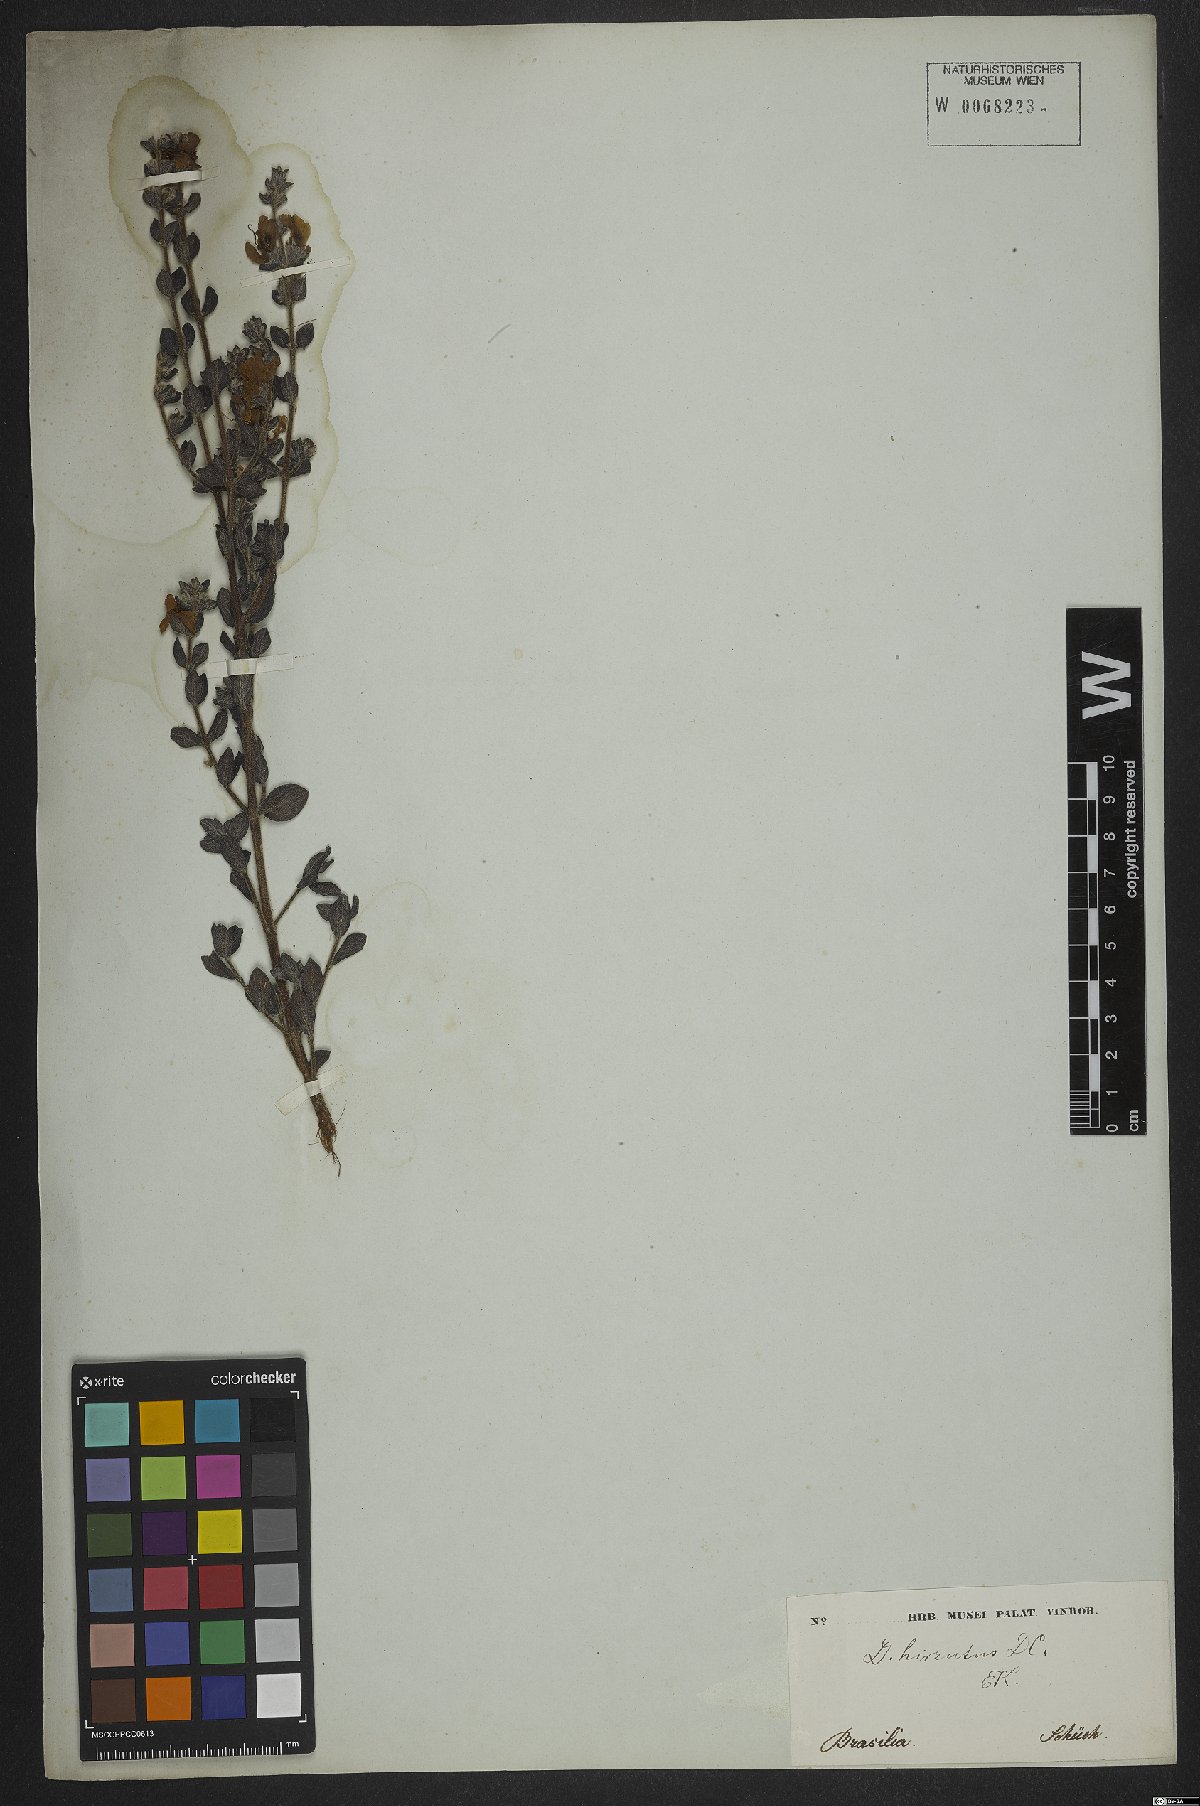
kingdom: Plantae
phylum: Tracheophyta
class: Magnoliopsida
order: Myrtales
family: Lythraceae
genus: Cuphea
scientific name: Cuphea ingrata
